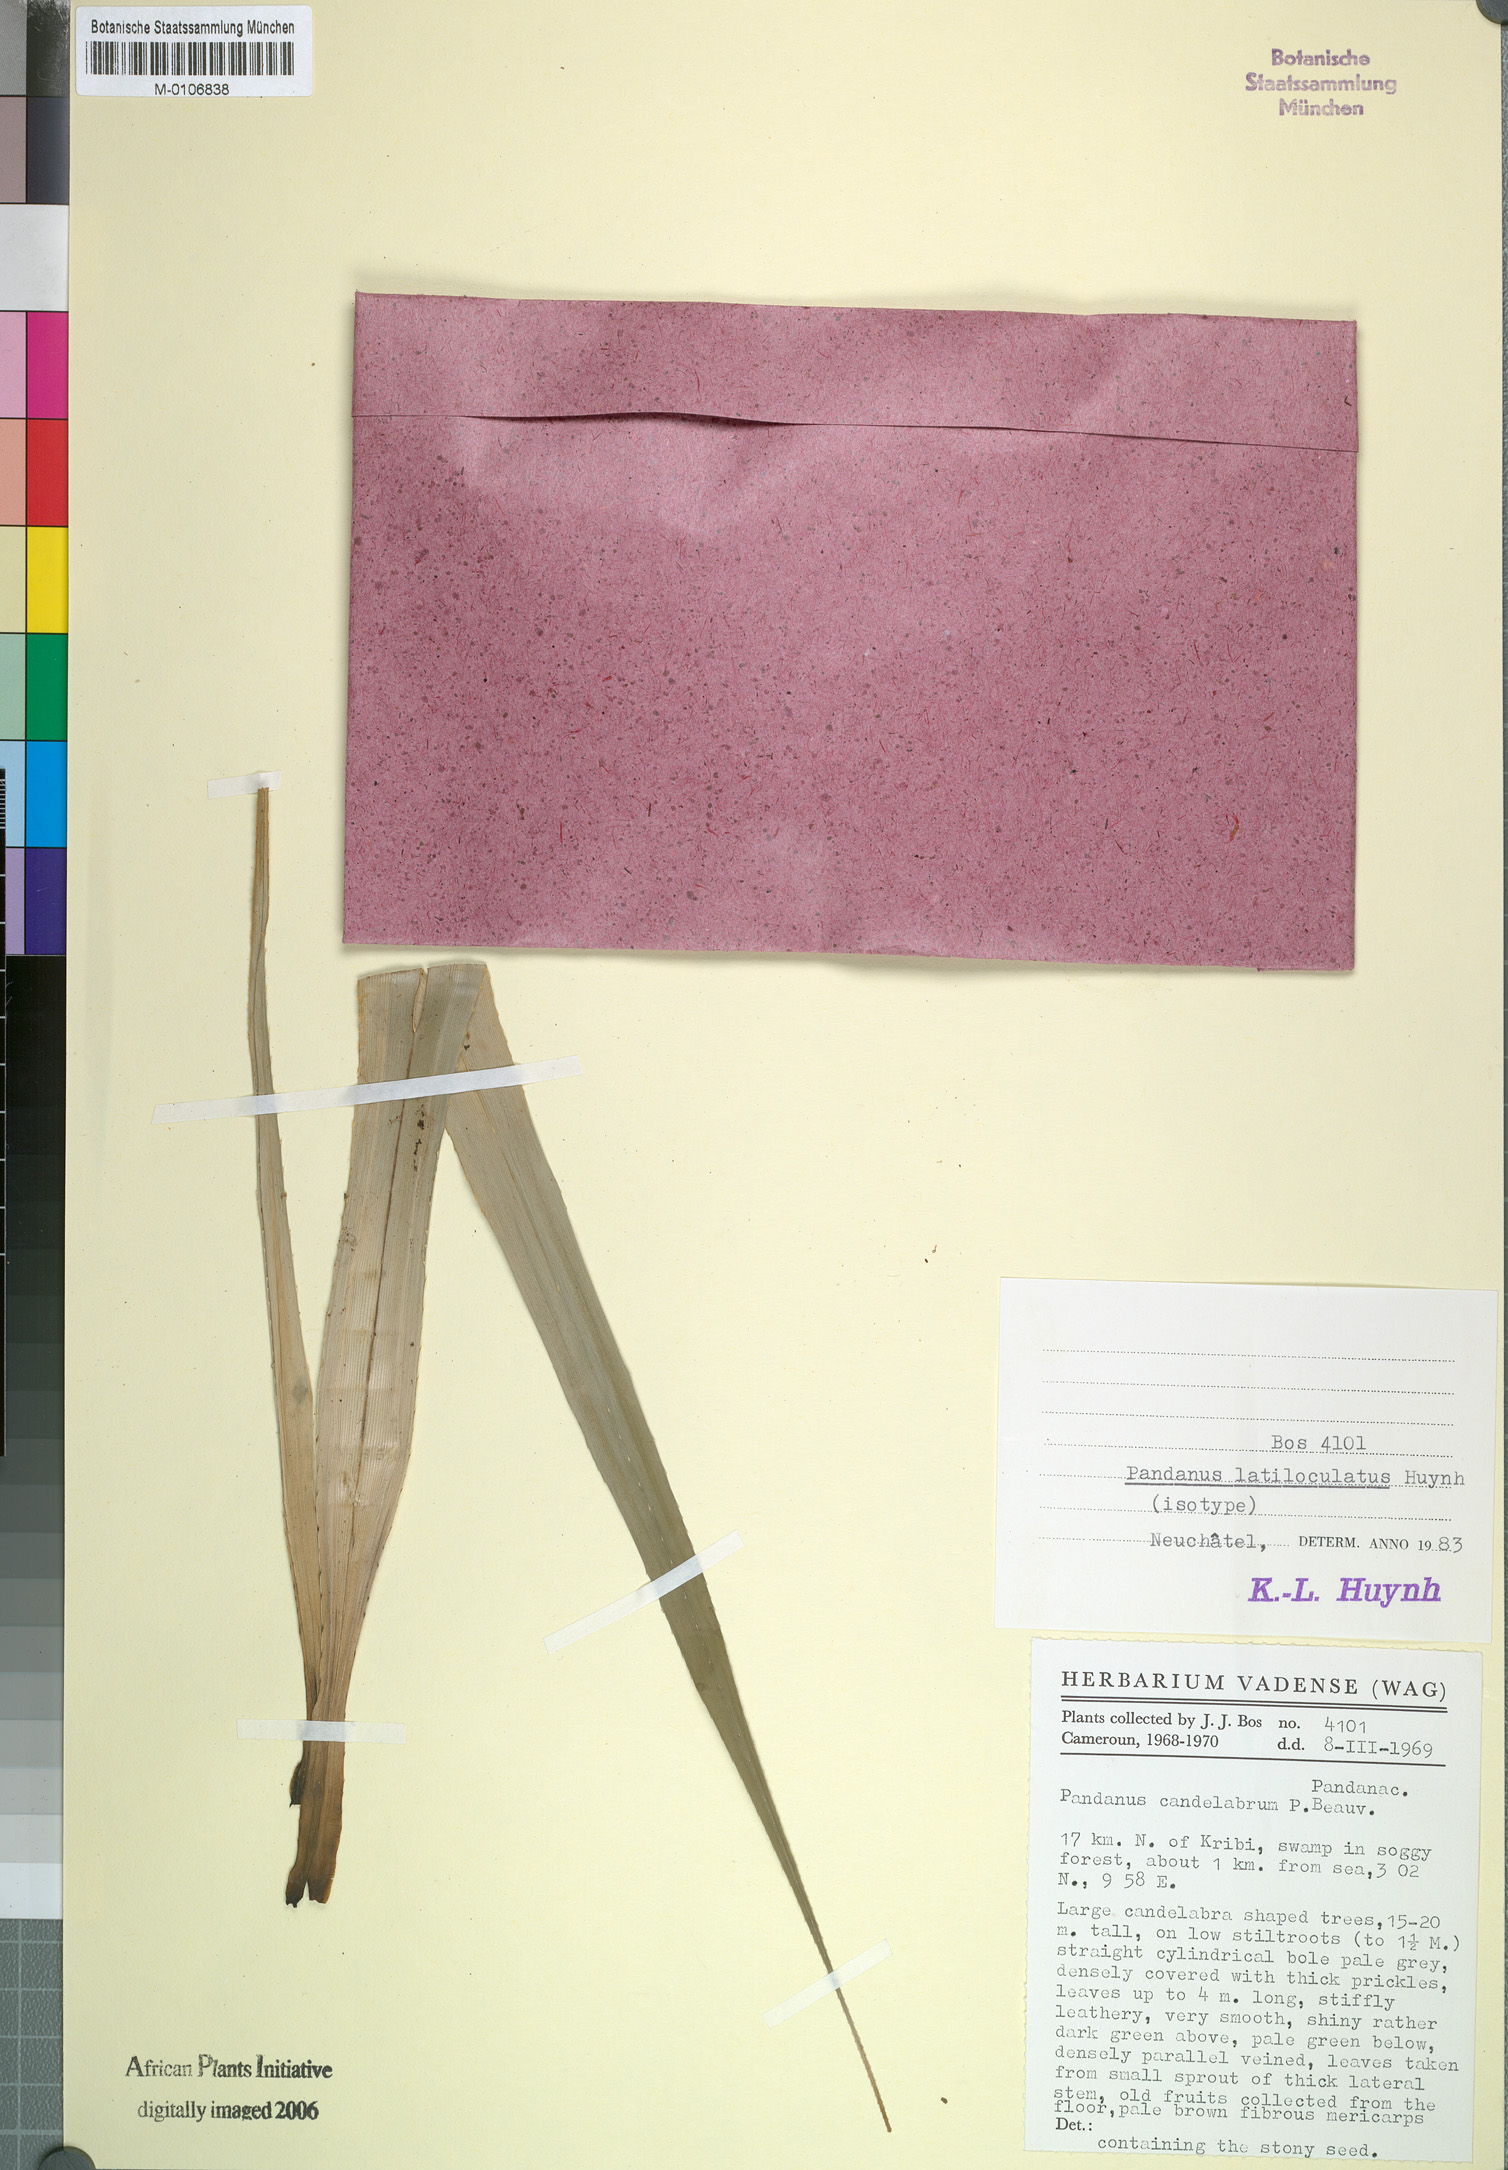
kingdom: Plantae
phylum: Tracheophyta
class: Liliopsida
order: Pandanales
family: Pandanaceae
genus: Pandanus
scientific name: Pandanus latiloculatus
